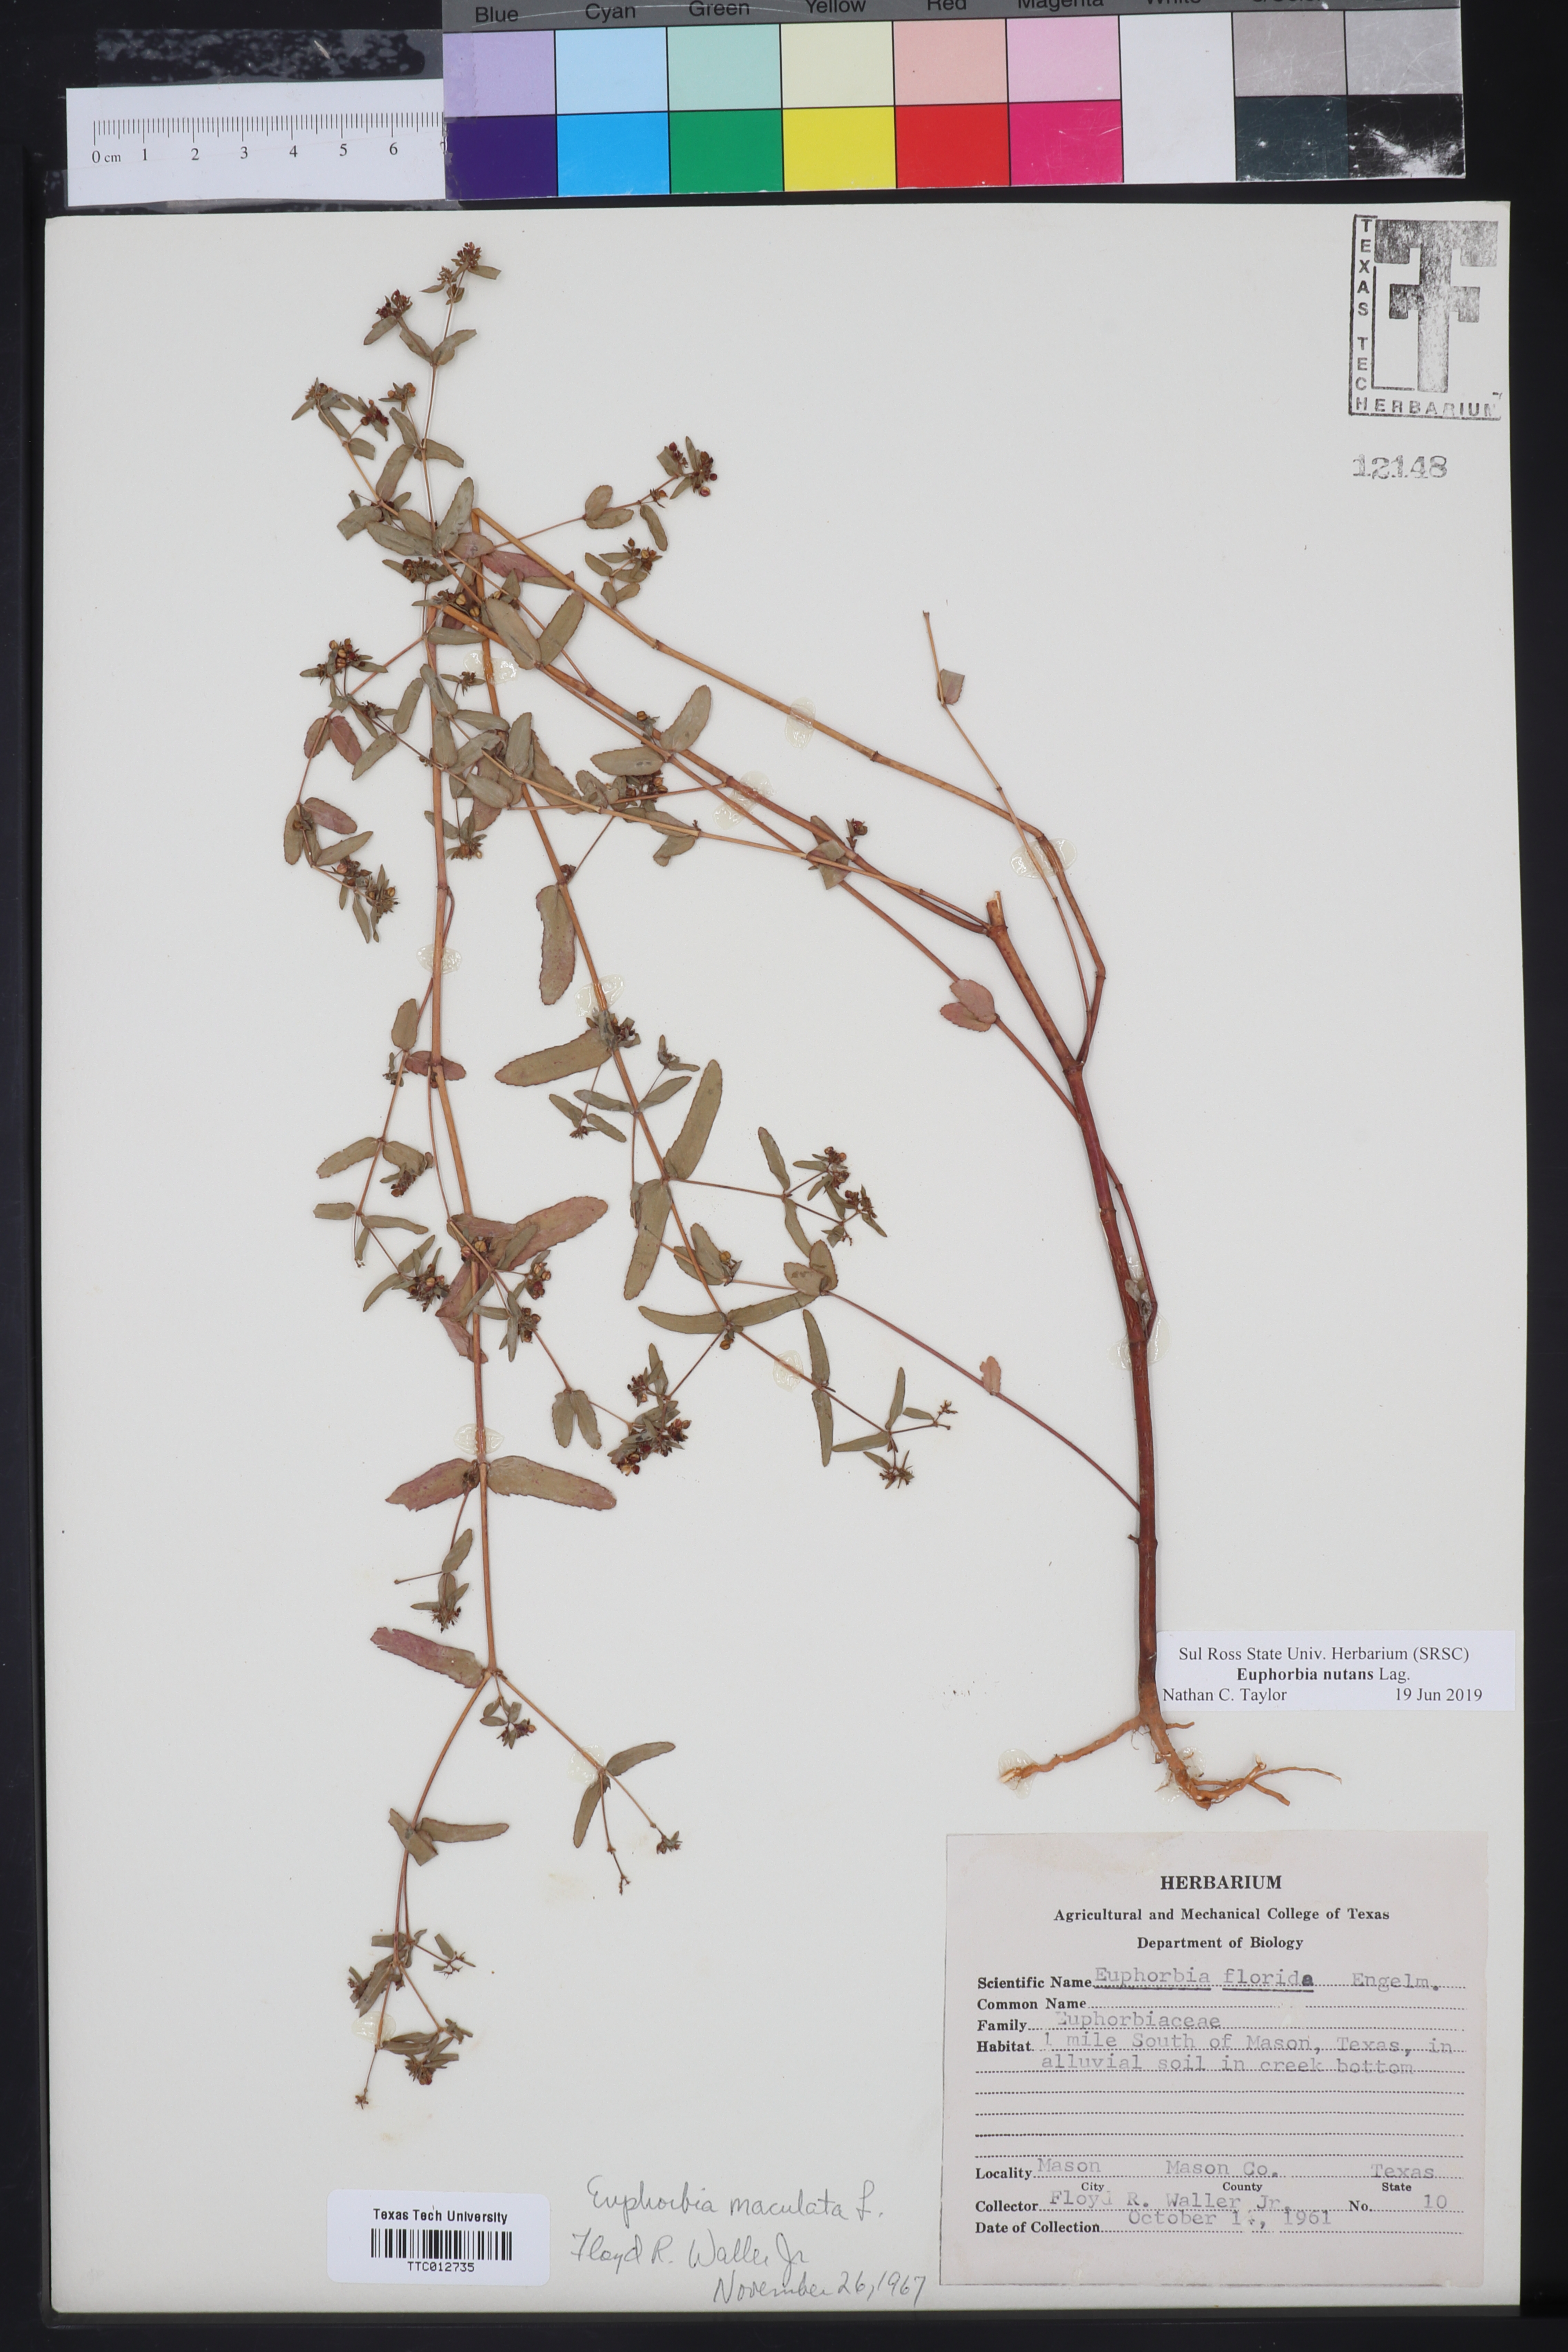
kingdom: Plantae
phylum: Tracheophyta
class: Magnoliopsida
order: Malpighiales
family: Euphorbiaceae
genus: Euphorbia
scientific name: Euphorbia nutans
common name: Eyebane
